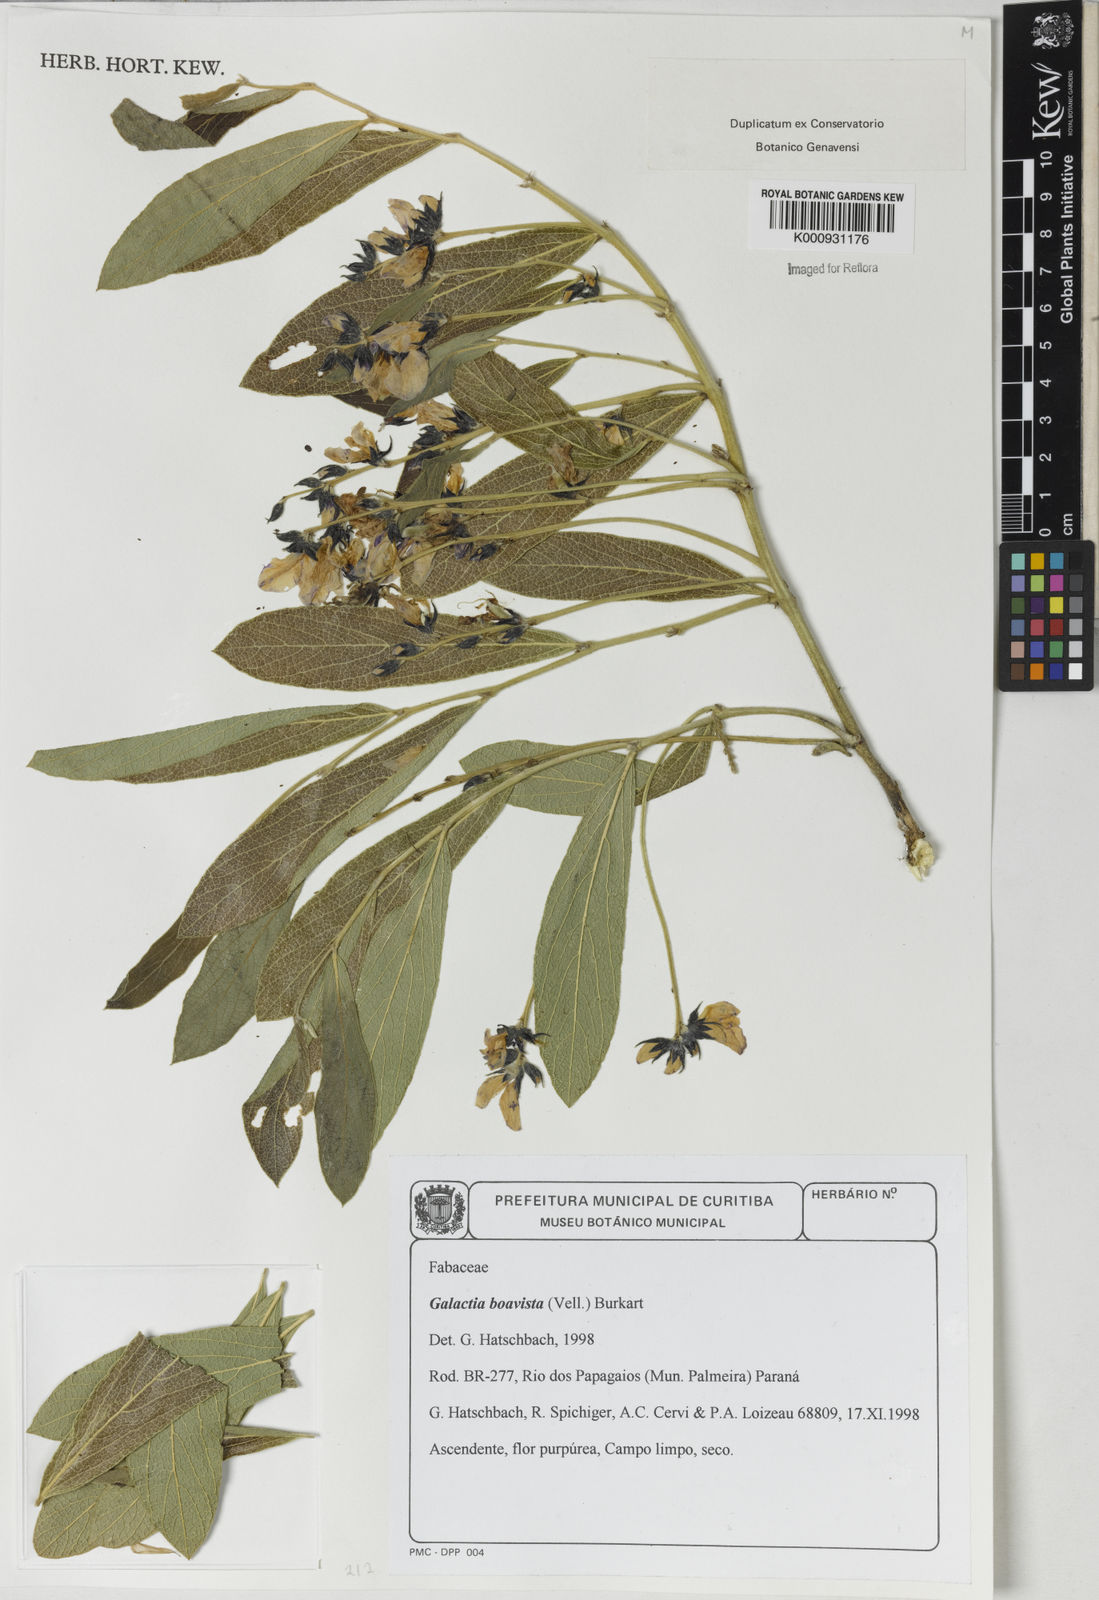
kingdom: Plantae
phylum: Tracheophyta
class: Magnoliopsida
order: Fabales
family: Fabaceae
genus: Cerradicola
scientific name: Cerradicola boavista
